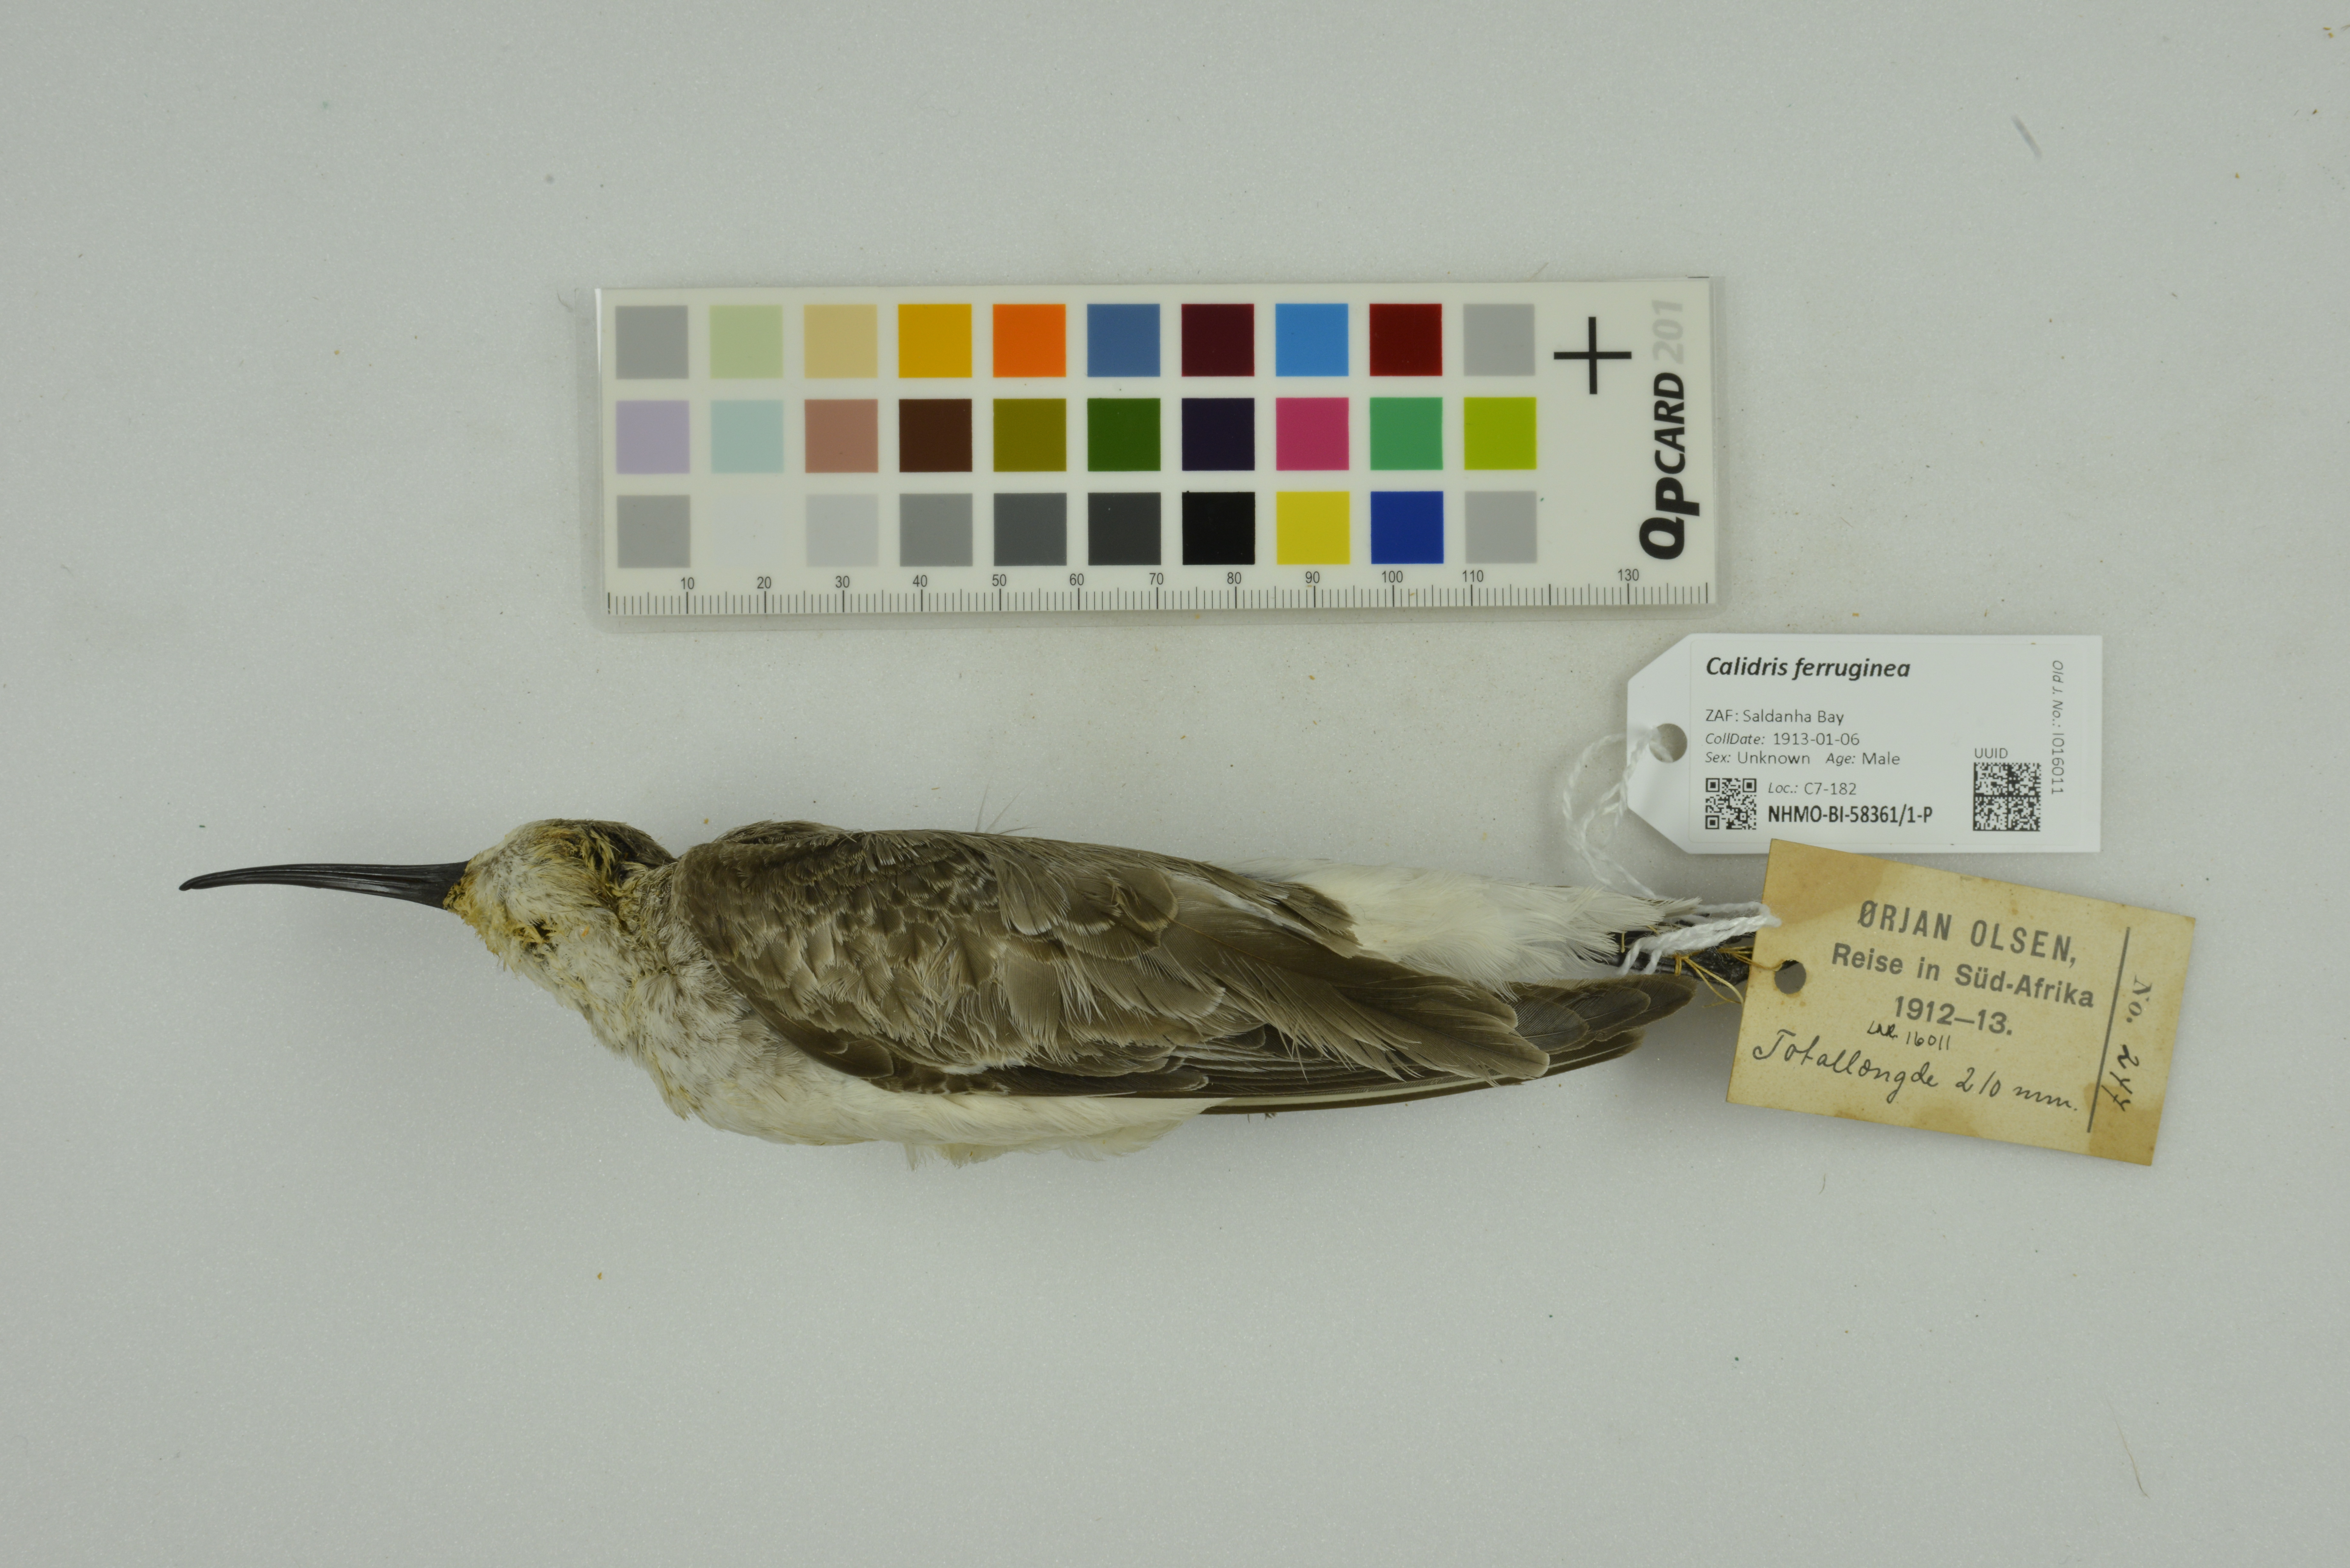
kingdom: Animalia
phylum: Chordata
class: Aves
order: Charadriiformes
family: Scolopacidae
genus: Calidris
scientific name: Calidris ferruginea
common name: Curlew sandpiper
